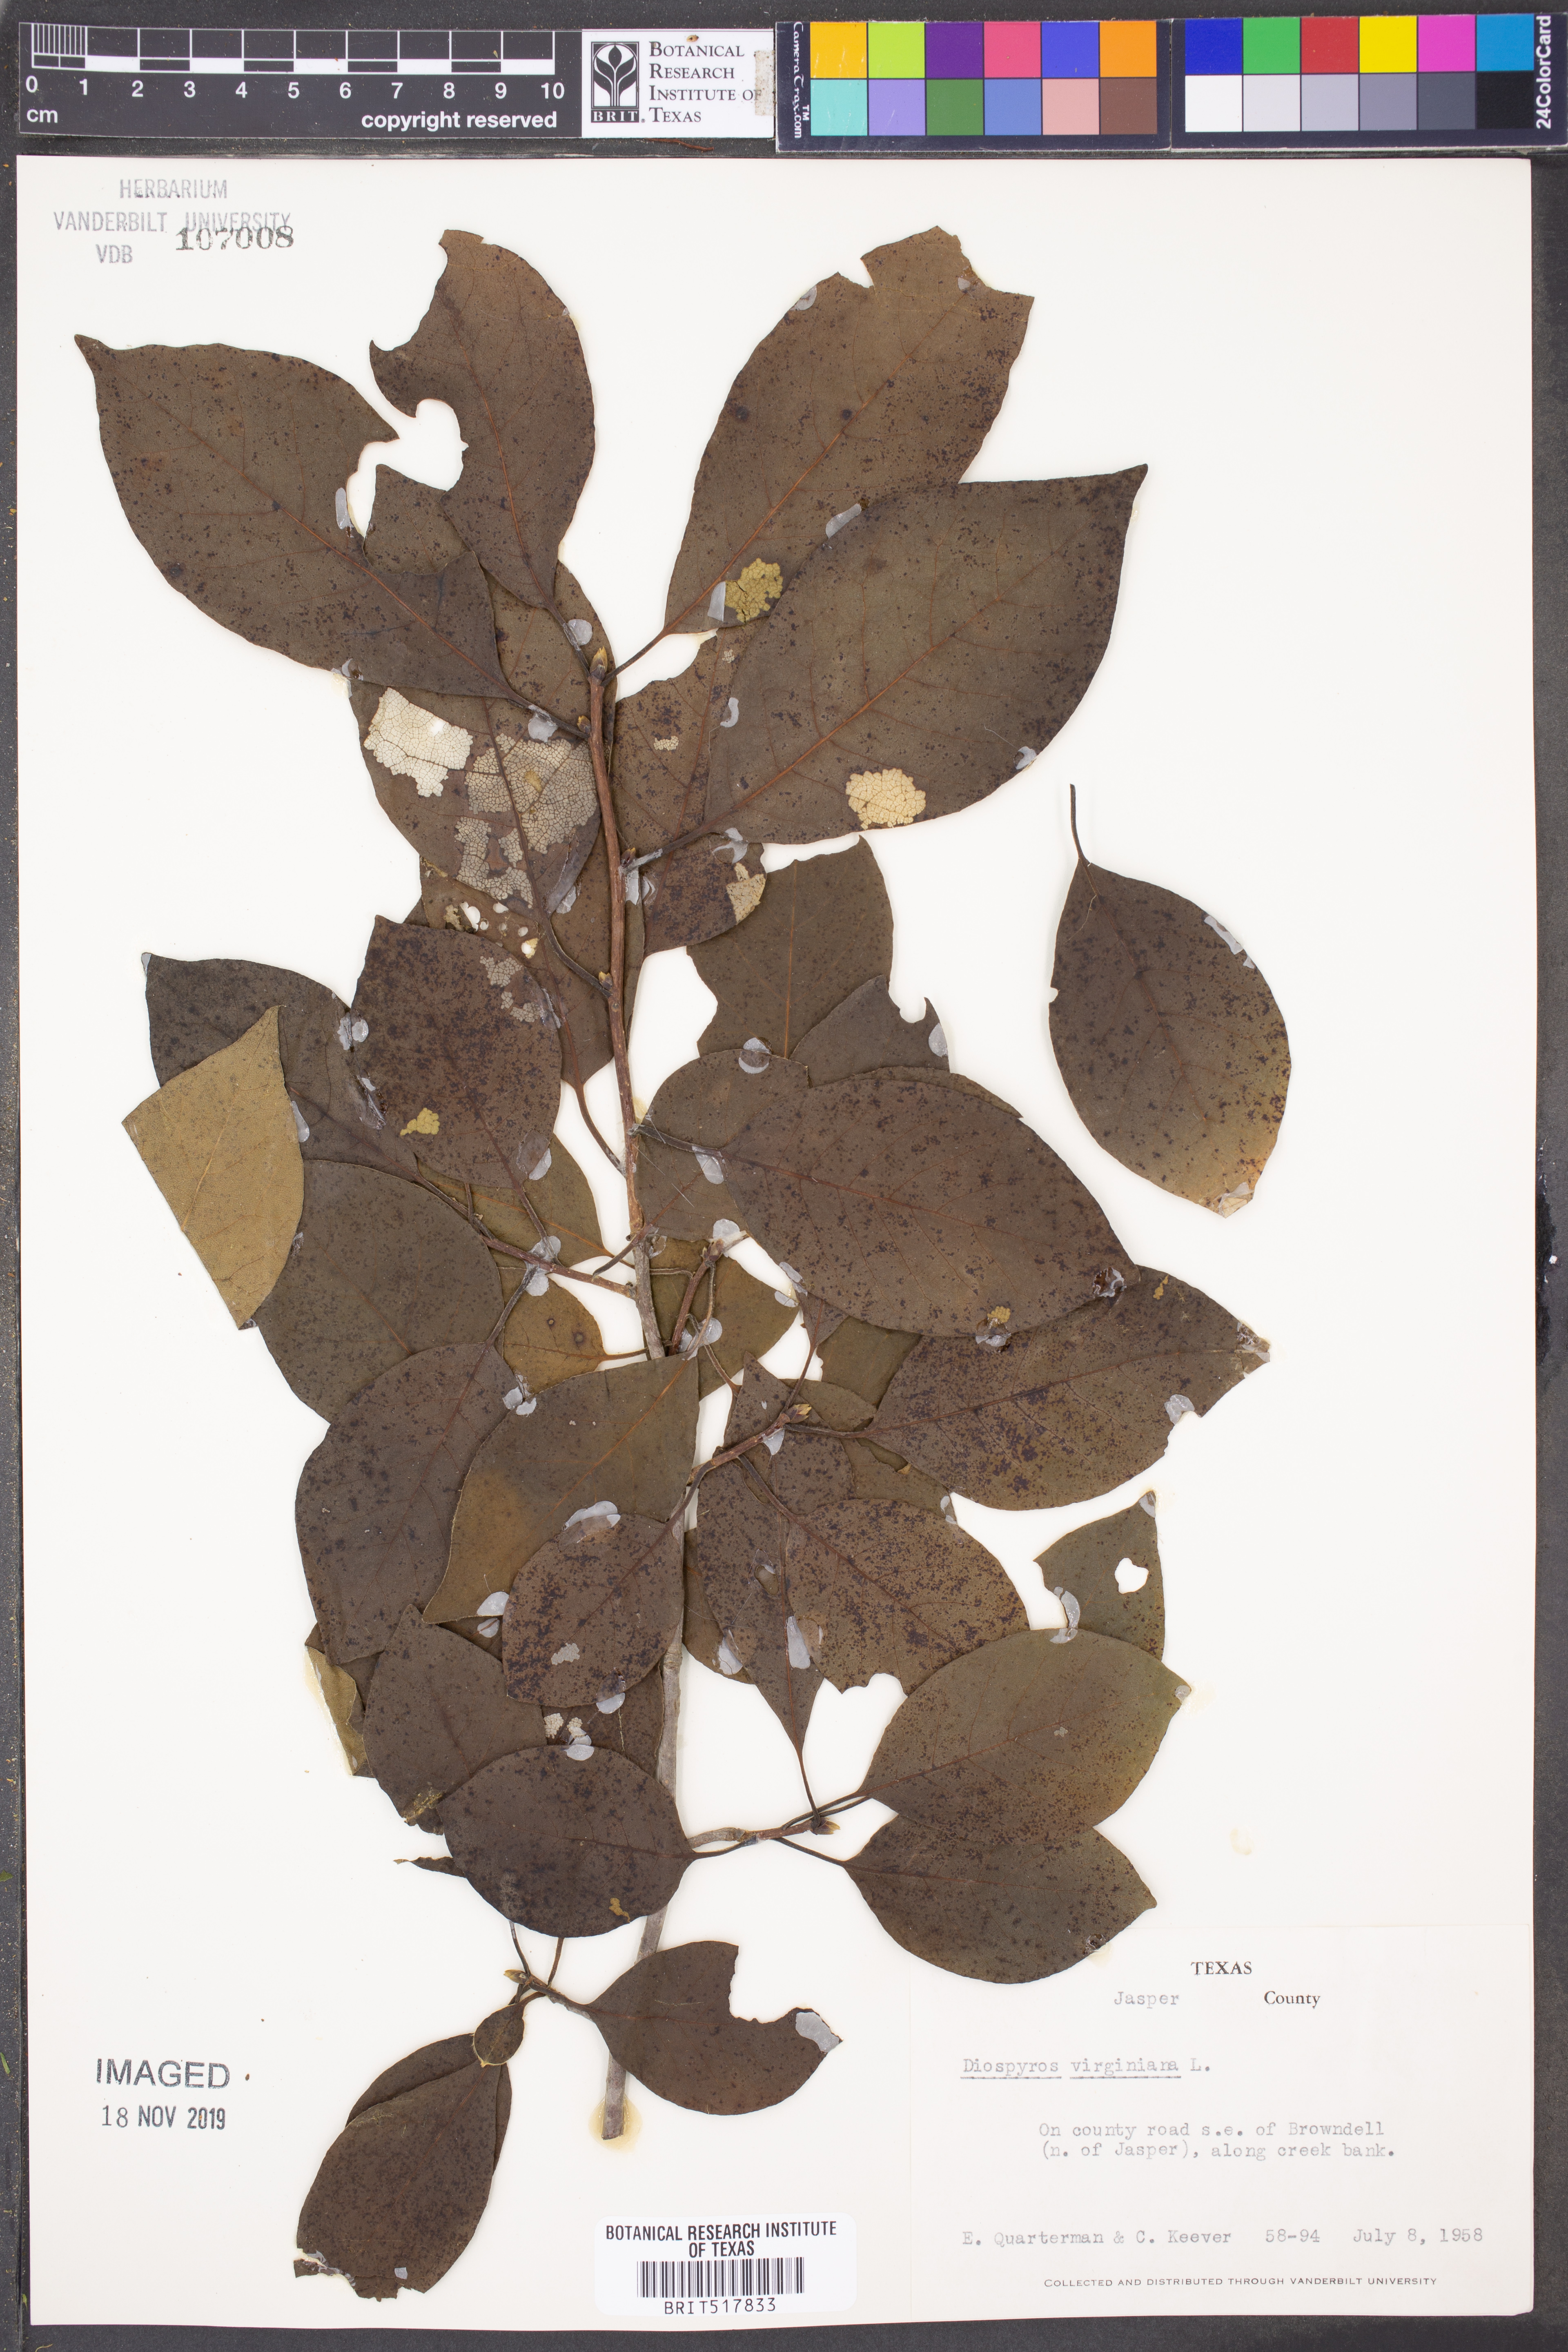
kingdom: Plantae
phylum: Tracheophyta
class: Magnoliopsida
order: Ericales
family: Ebenaceae
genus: Diospyros
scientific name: Diospyros virginiana
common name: Persimmon
